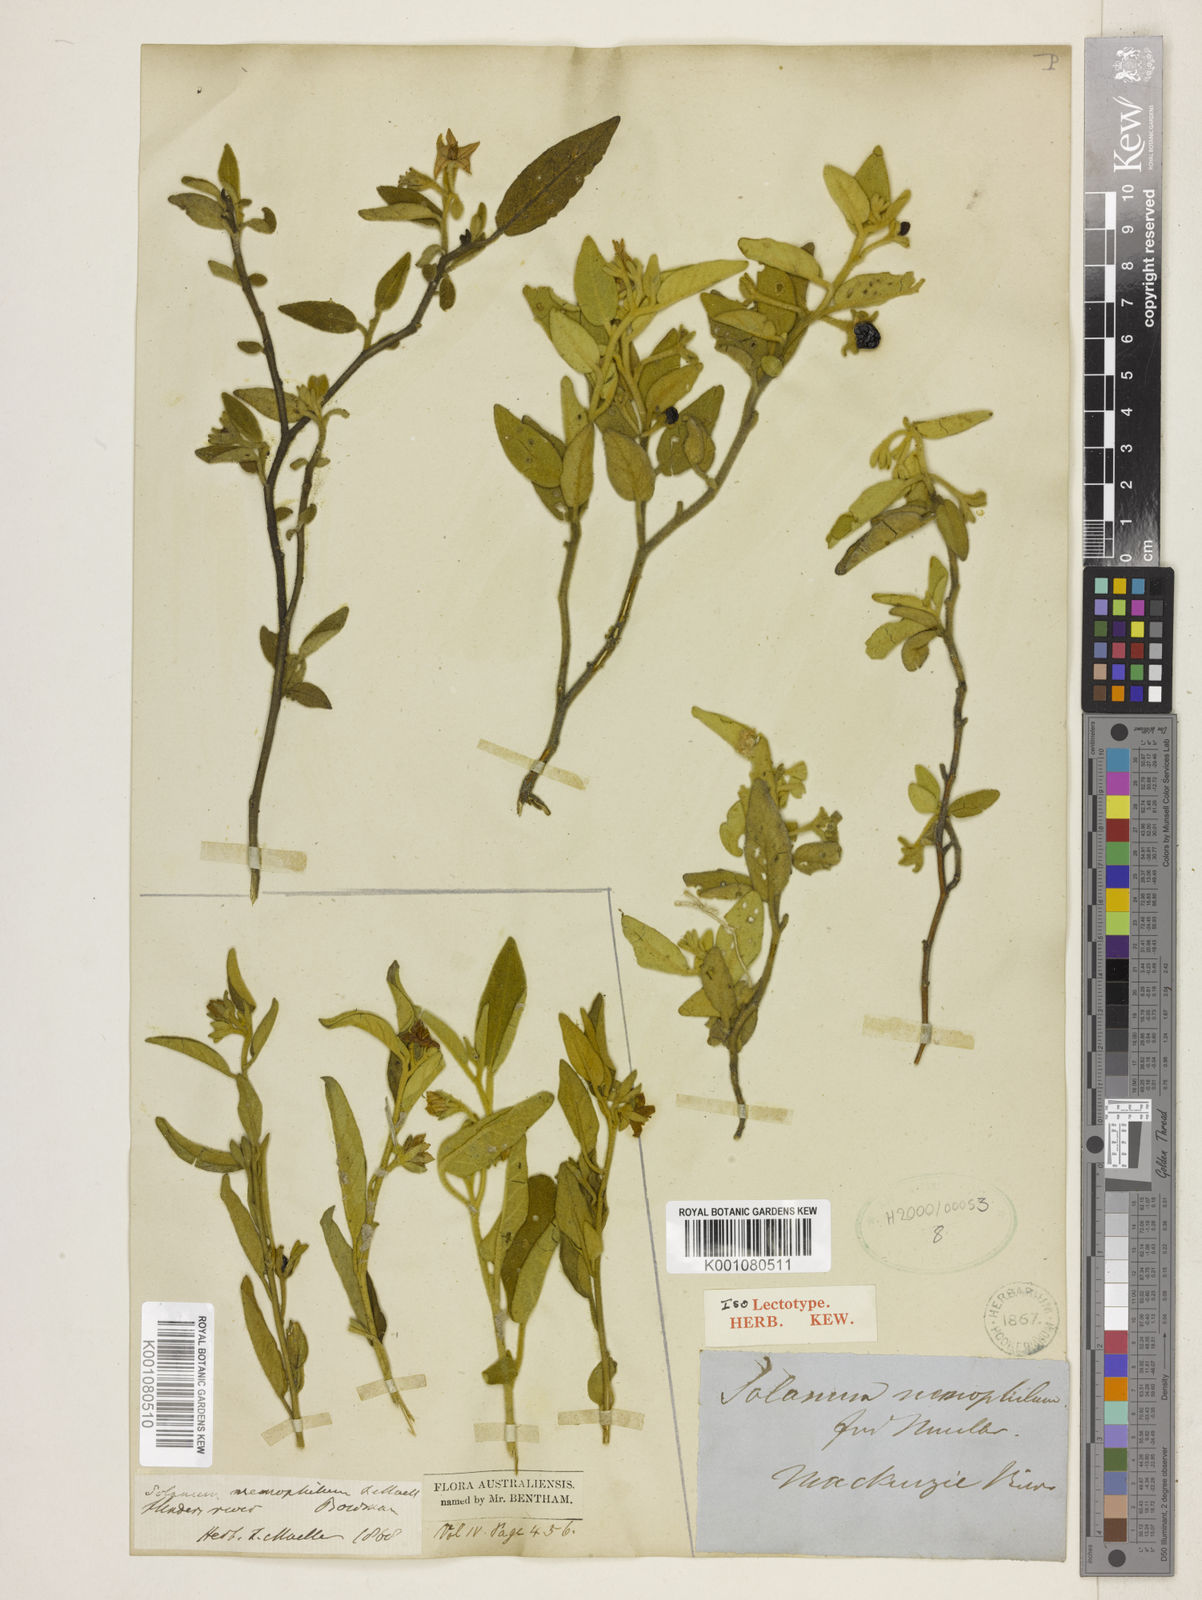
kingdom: Plantae
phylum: Tracheophyta
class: Magnoliopsida
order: Solanales
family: Solanaceae
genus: Solanum
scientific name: Solanum nemophilum
